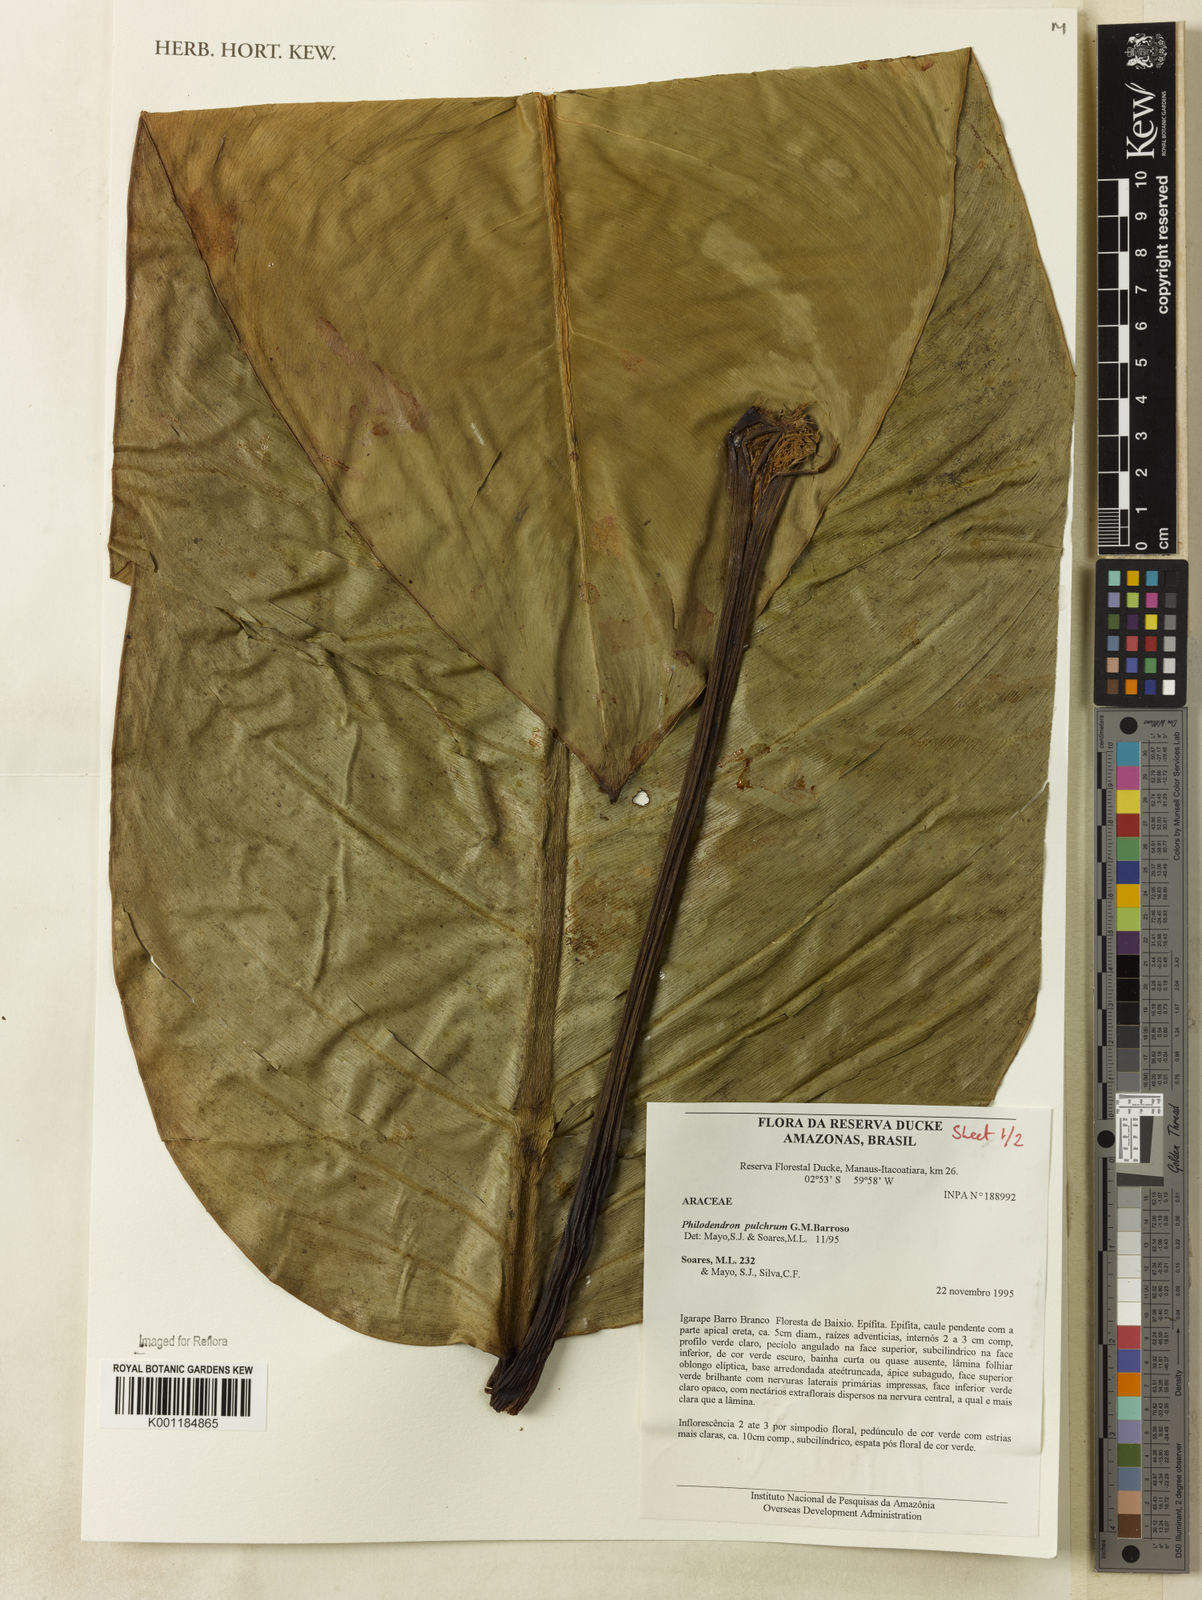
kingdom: Plantae
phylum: Tracheophyta
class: Liliopsida
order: Alismatales
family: Araceae
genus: Philodendron
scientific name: Philodendron pulchrum
